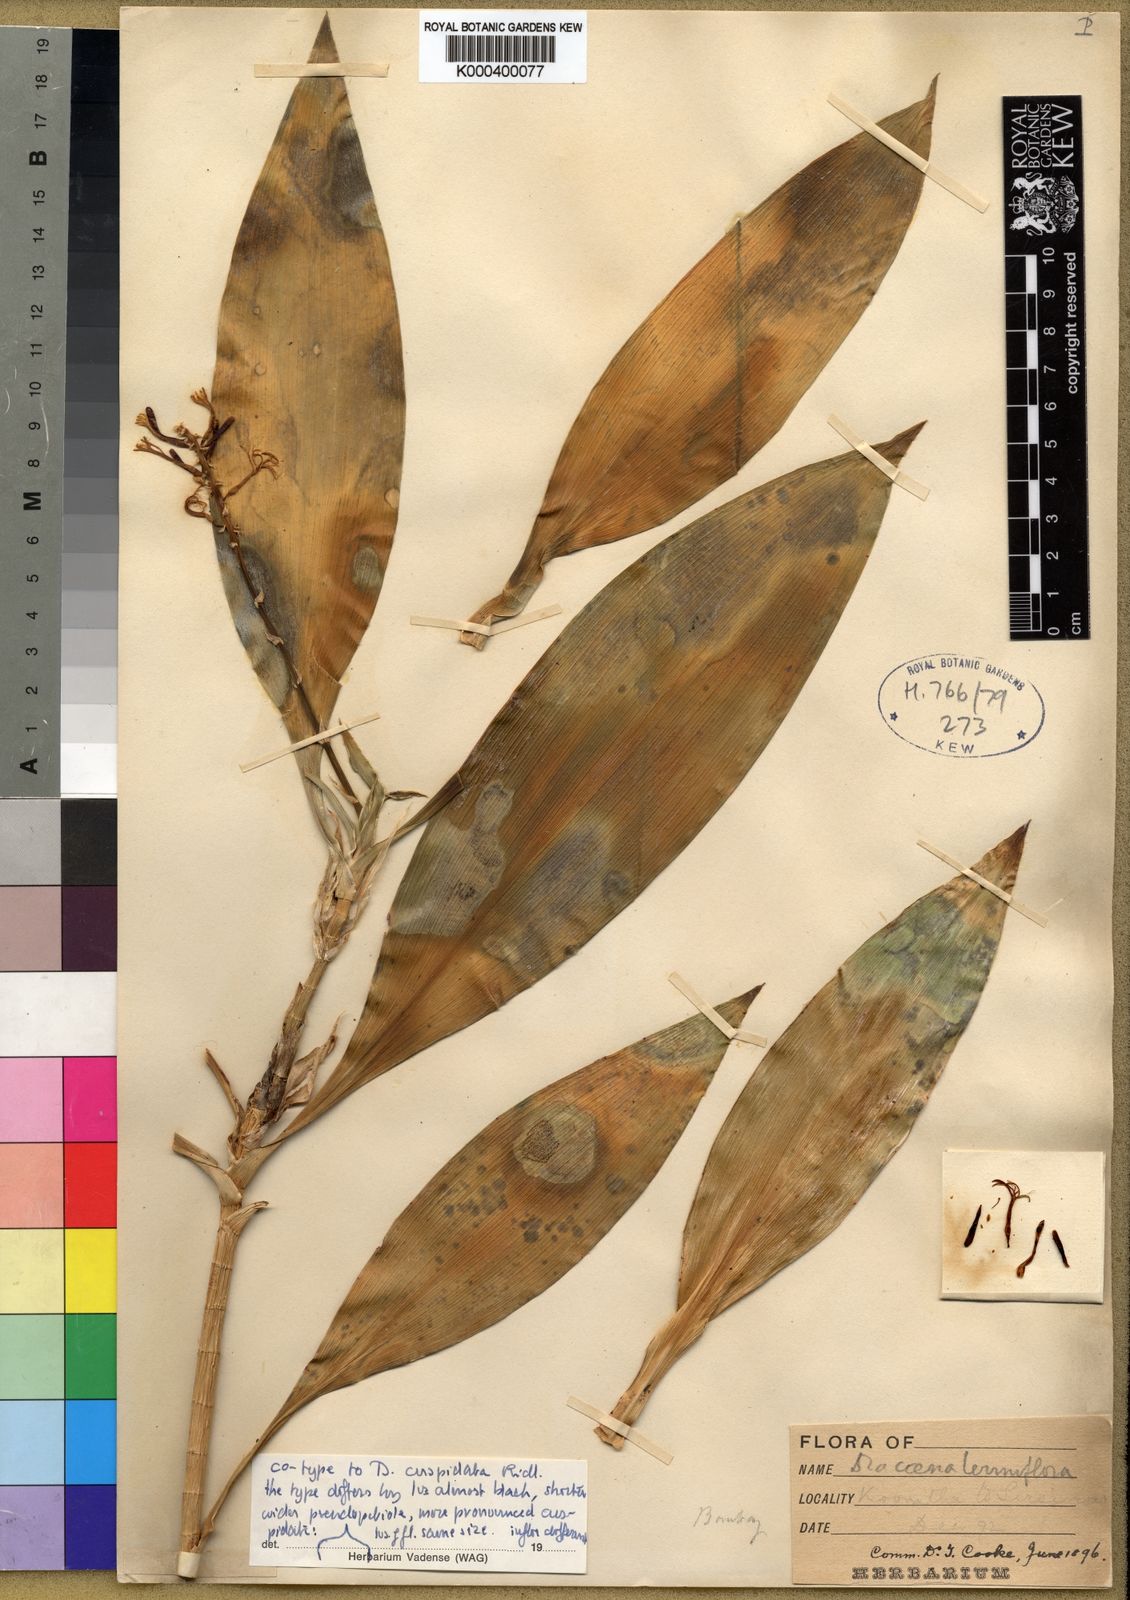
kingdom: Plantae
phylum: Tracheophyta
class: Liliopsida
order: Asparagales
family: Asparagaceae
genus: Dracaena
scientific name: Dracaena cuspidata
